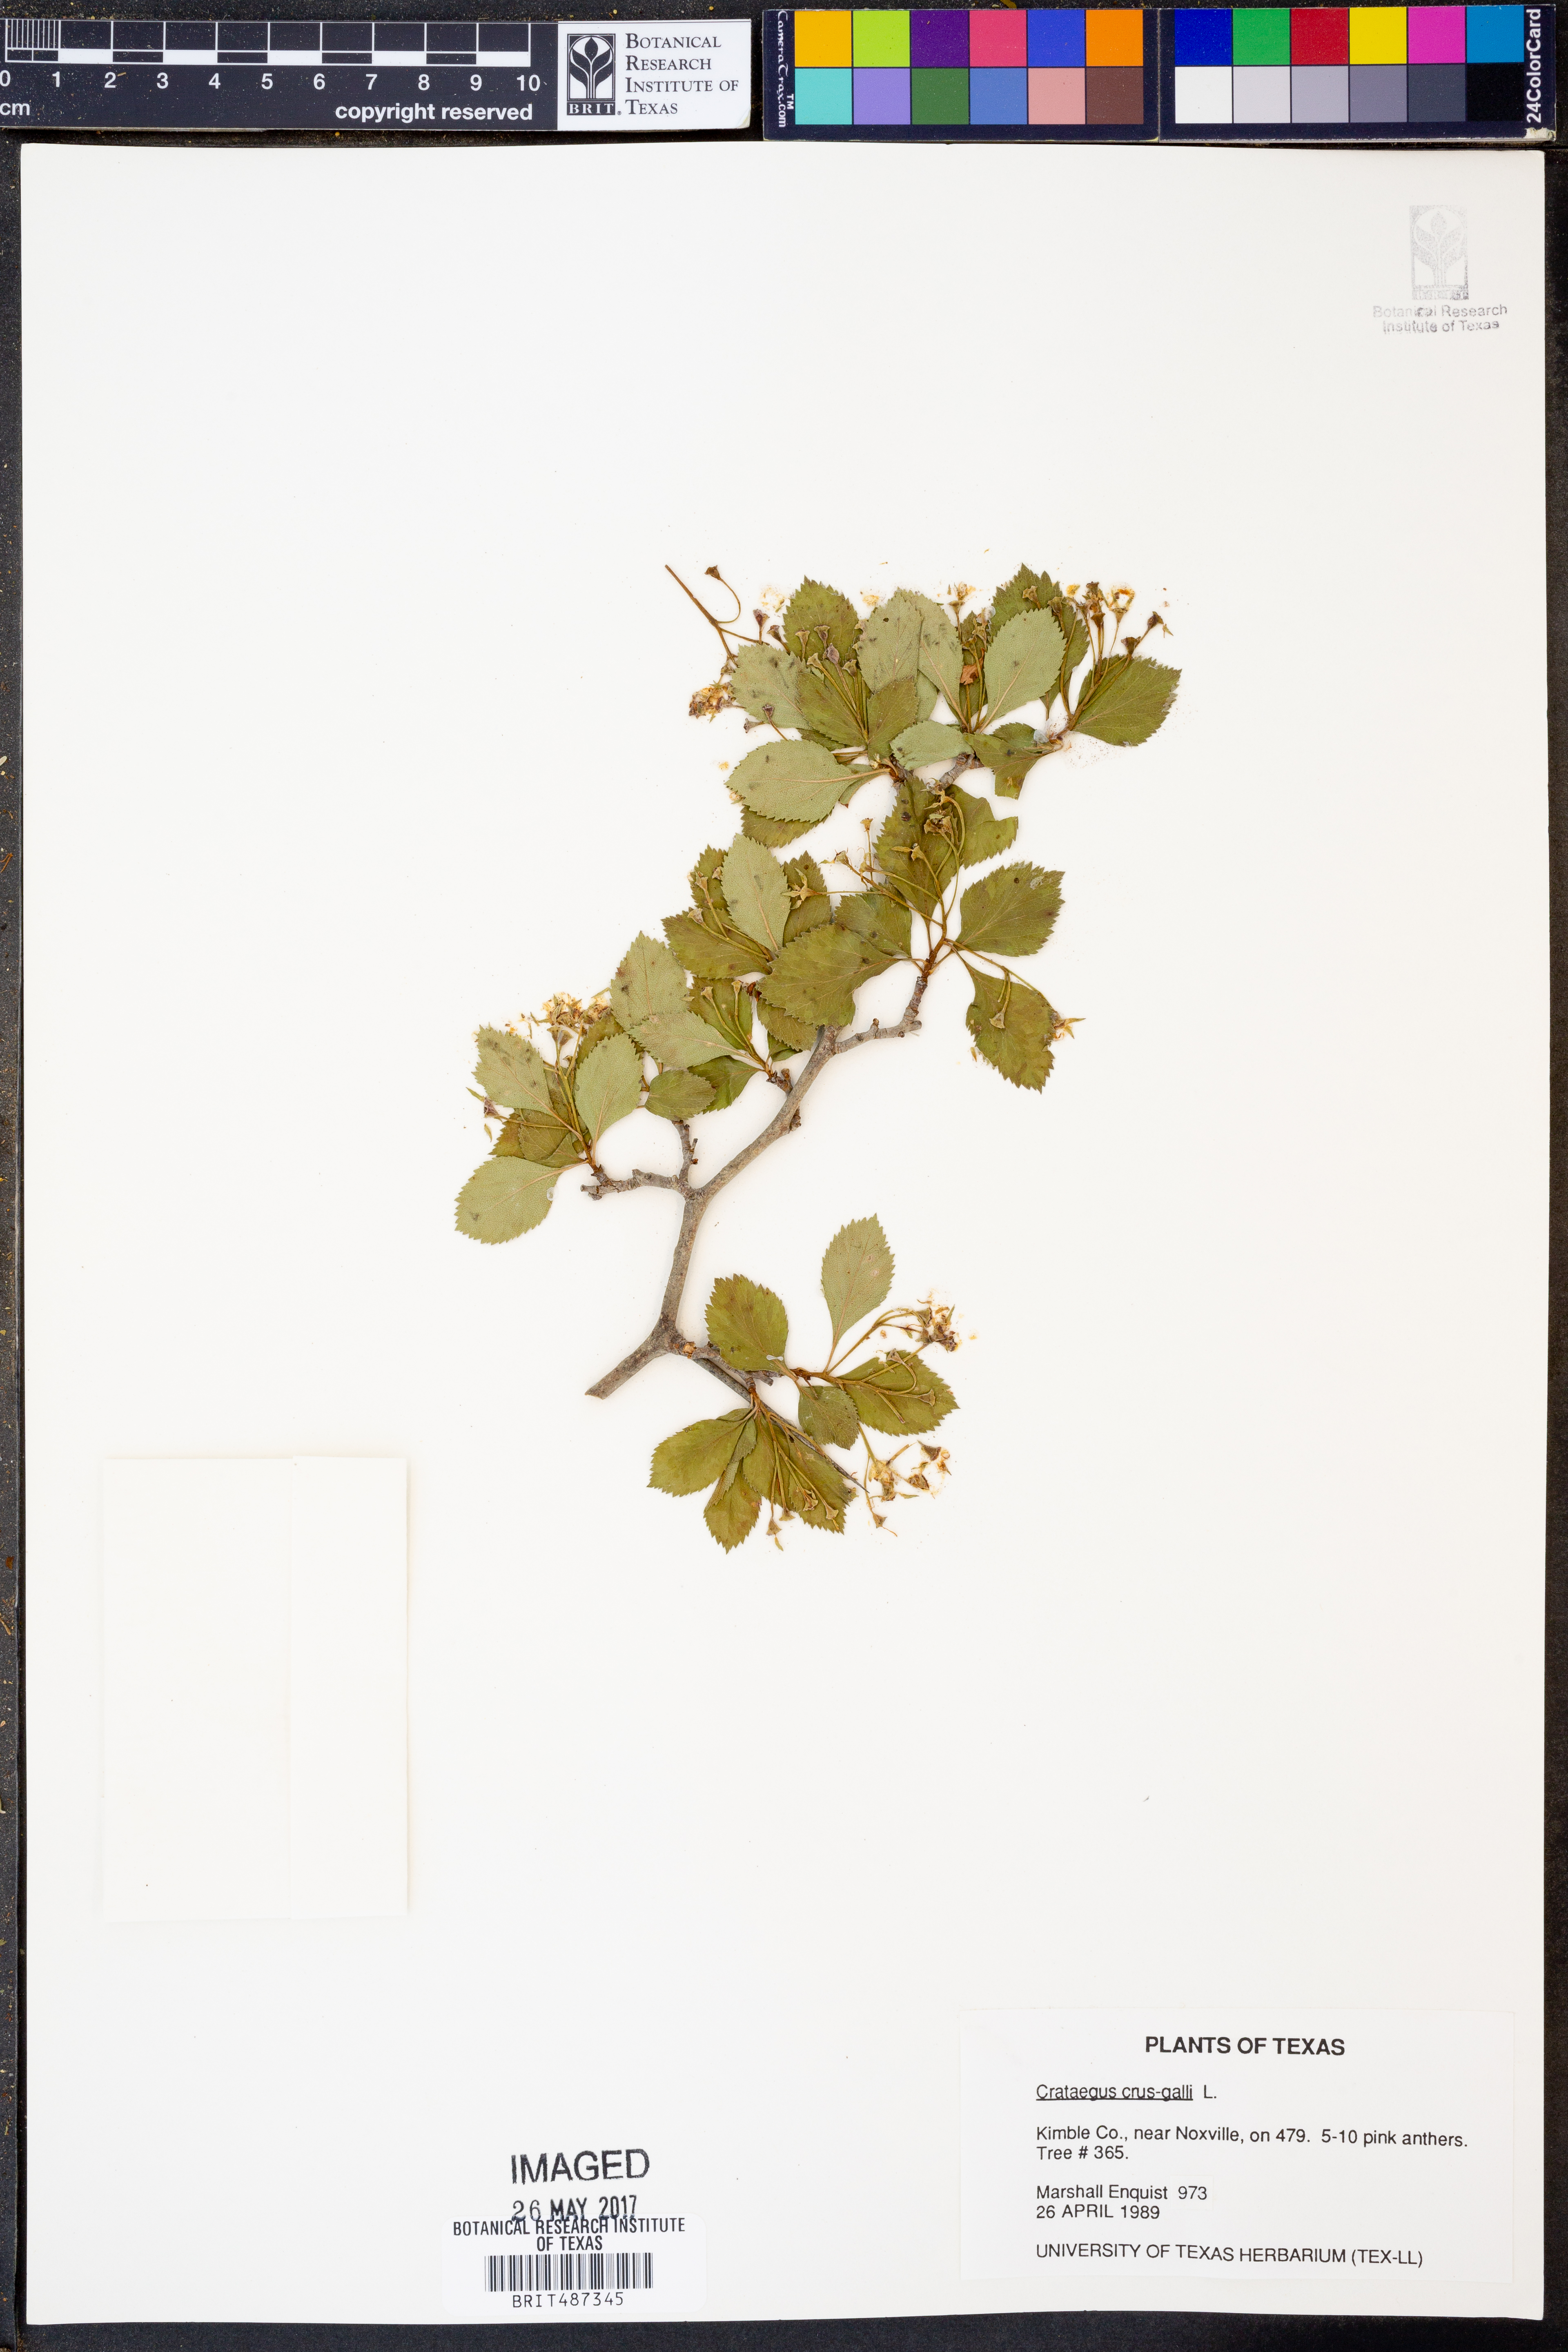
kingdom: Plantae
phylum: Tracheophyta
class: Magnoliopsida
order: Rosales
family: Rosaceae
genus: Crataegus
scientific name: Crataegus crus-galli
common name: Cockspurthorn
